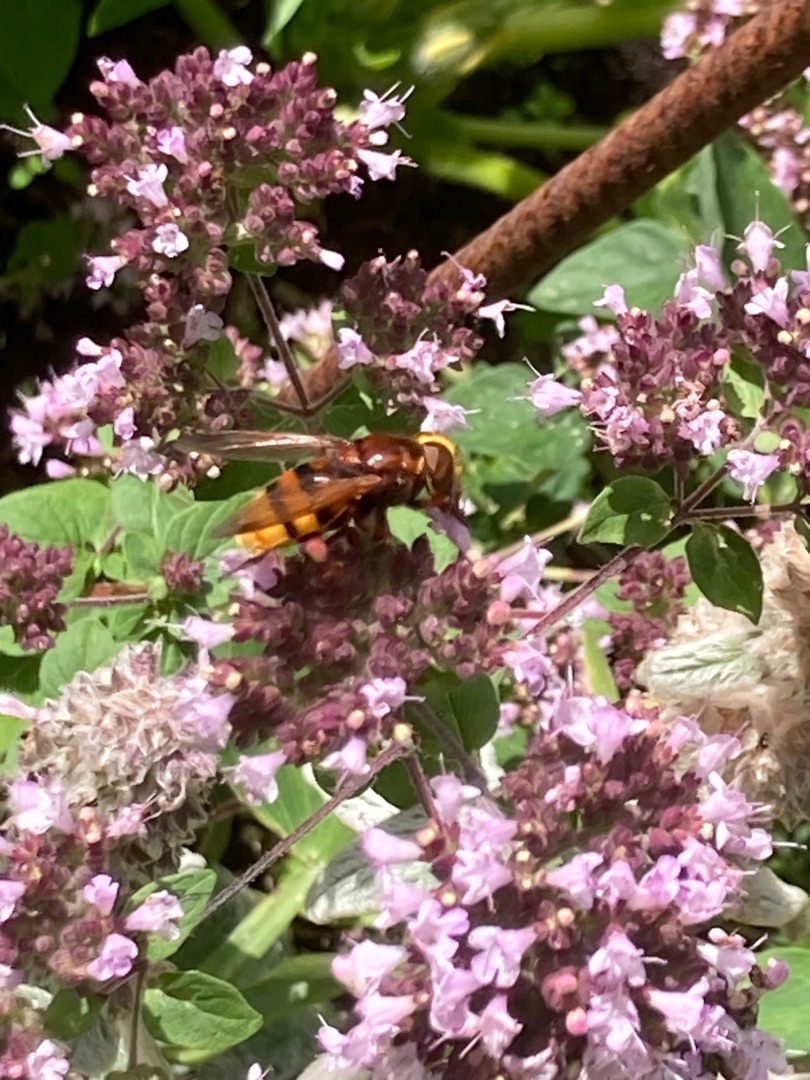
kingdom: Animalia
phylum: Arthropoda
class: Insecta
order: Diptera
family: Syrphidae
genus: Volucella
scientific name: Volucella zonaria
